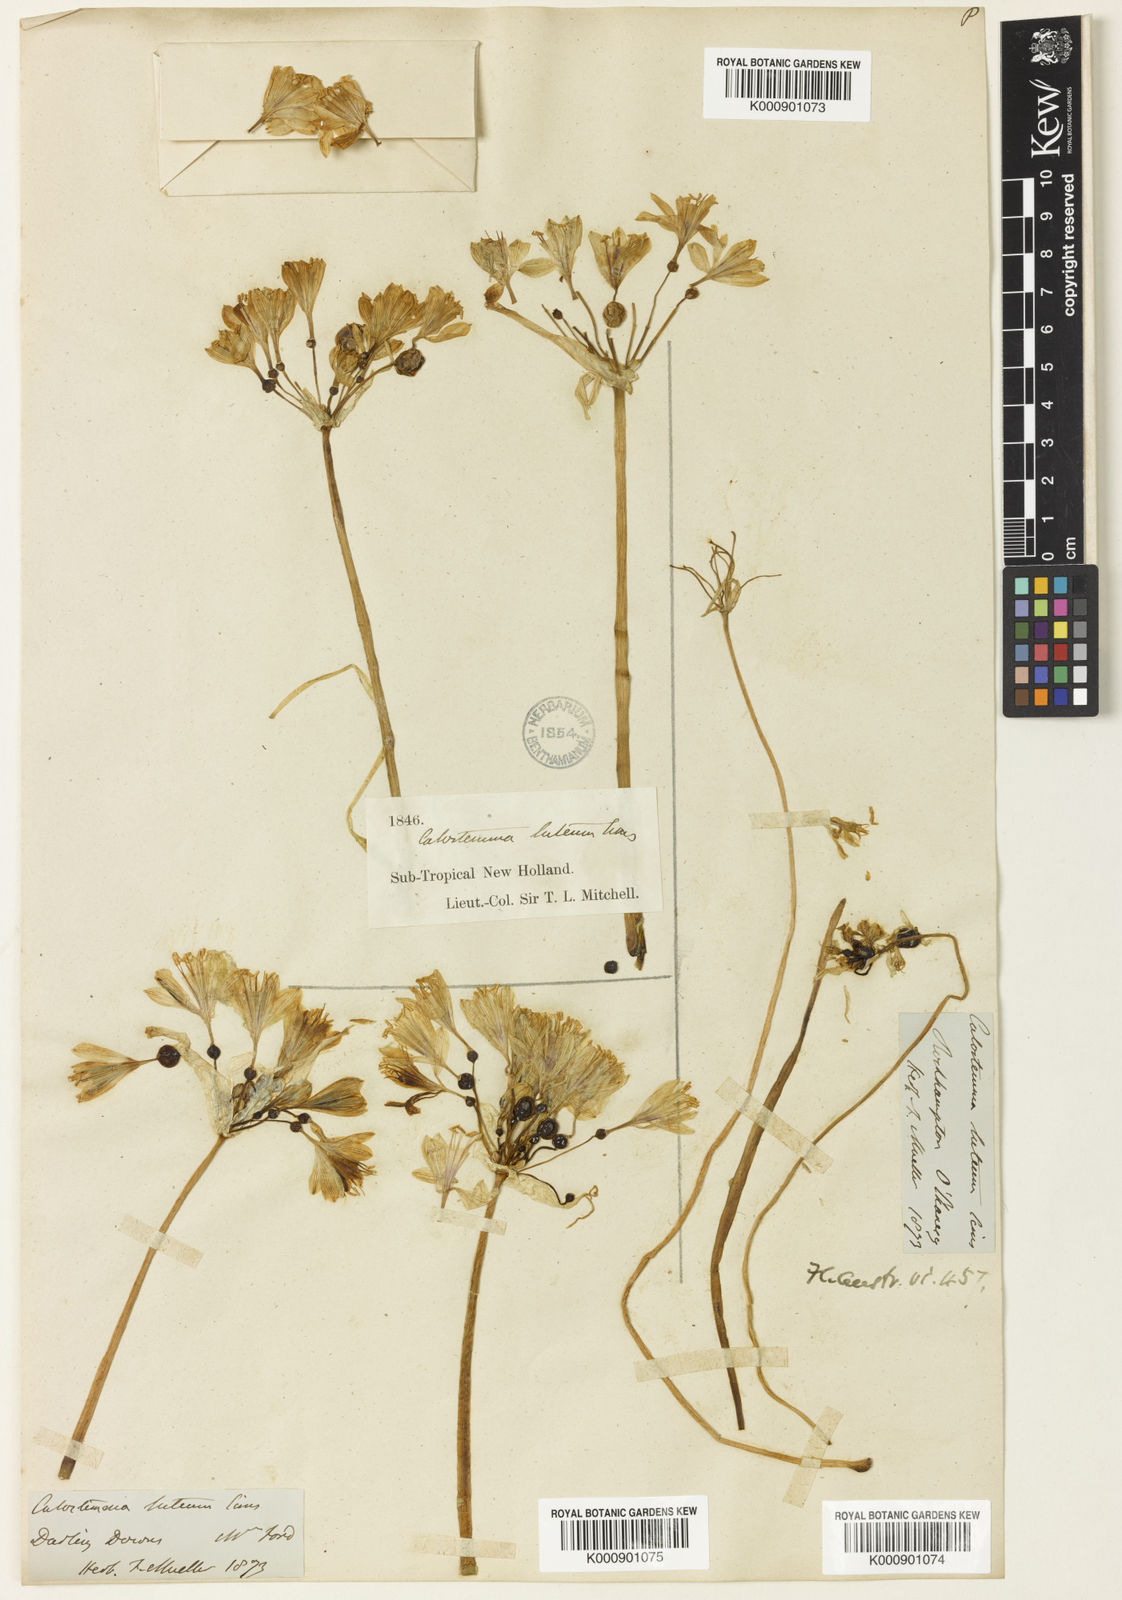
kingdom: Plantae
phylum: Tracheophyta
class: Liliopsida
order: Asparagales
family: Amaryllidaceae
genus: Calostemma
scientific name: Calostemma luteum
